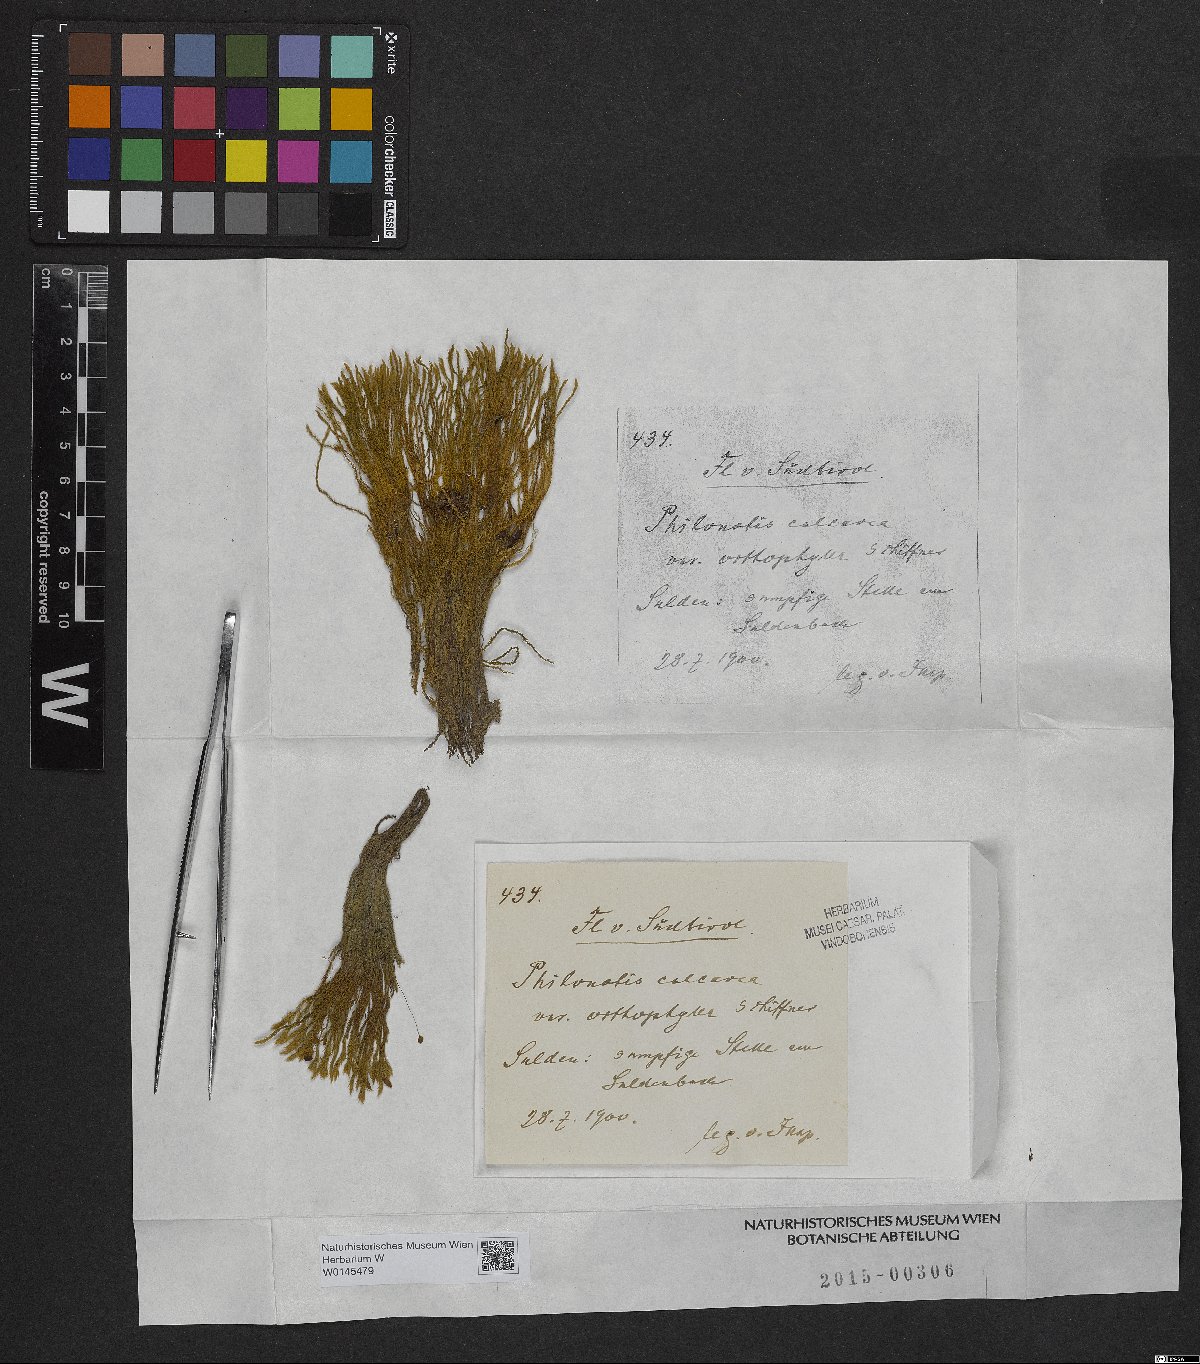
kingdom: Plantae
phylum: Bryophyta
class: Bryopsida
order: Bartramiales
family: Bartramiaceae
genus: Philonotis
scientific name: Philonotis calcarea
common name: Thick-nerved apple-moss
